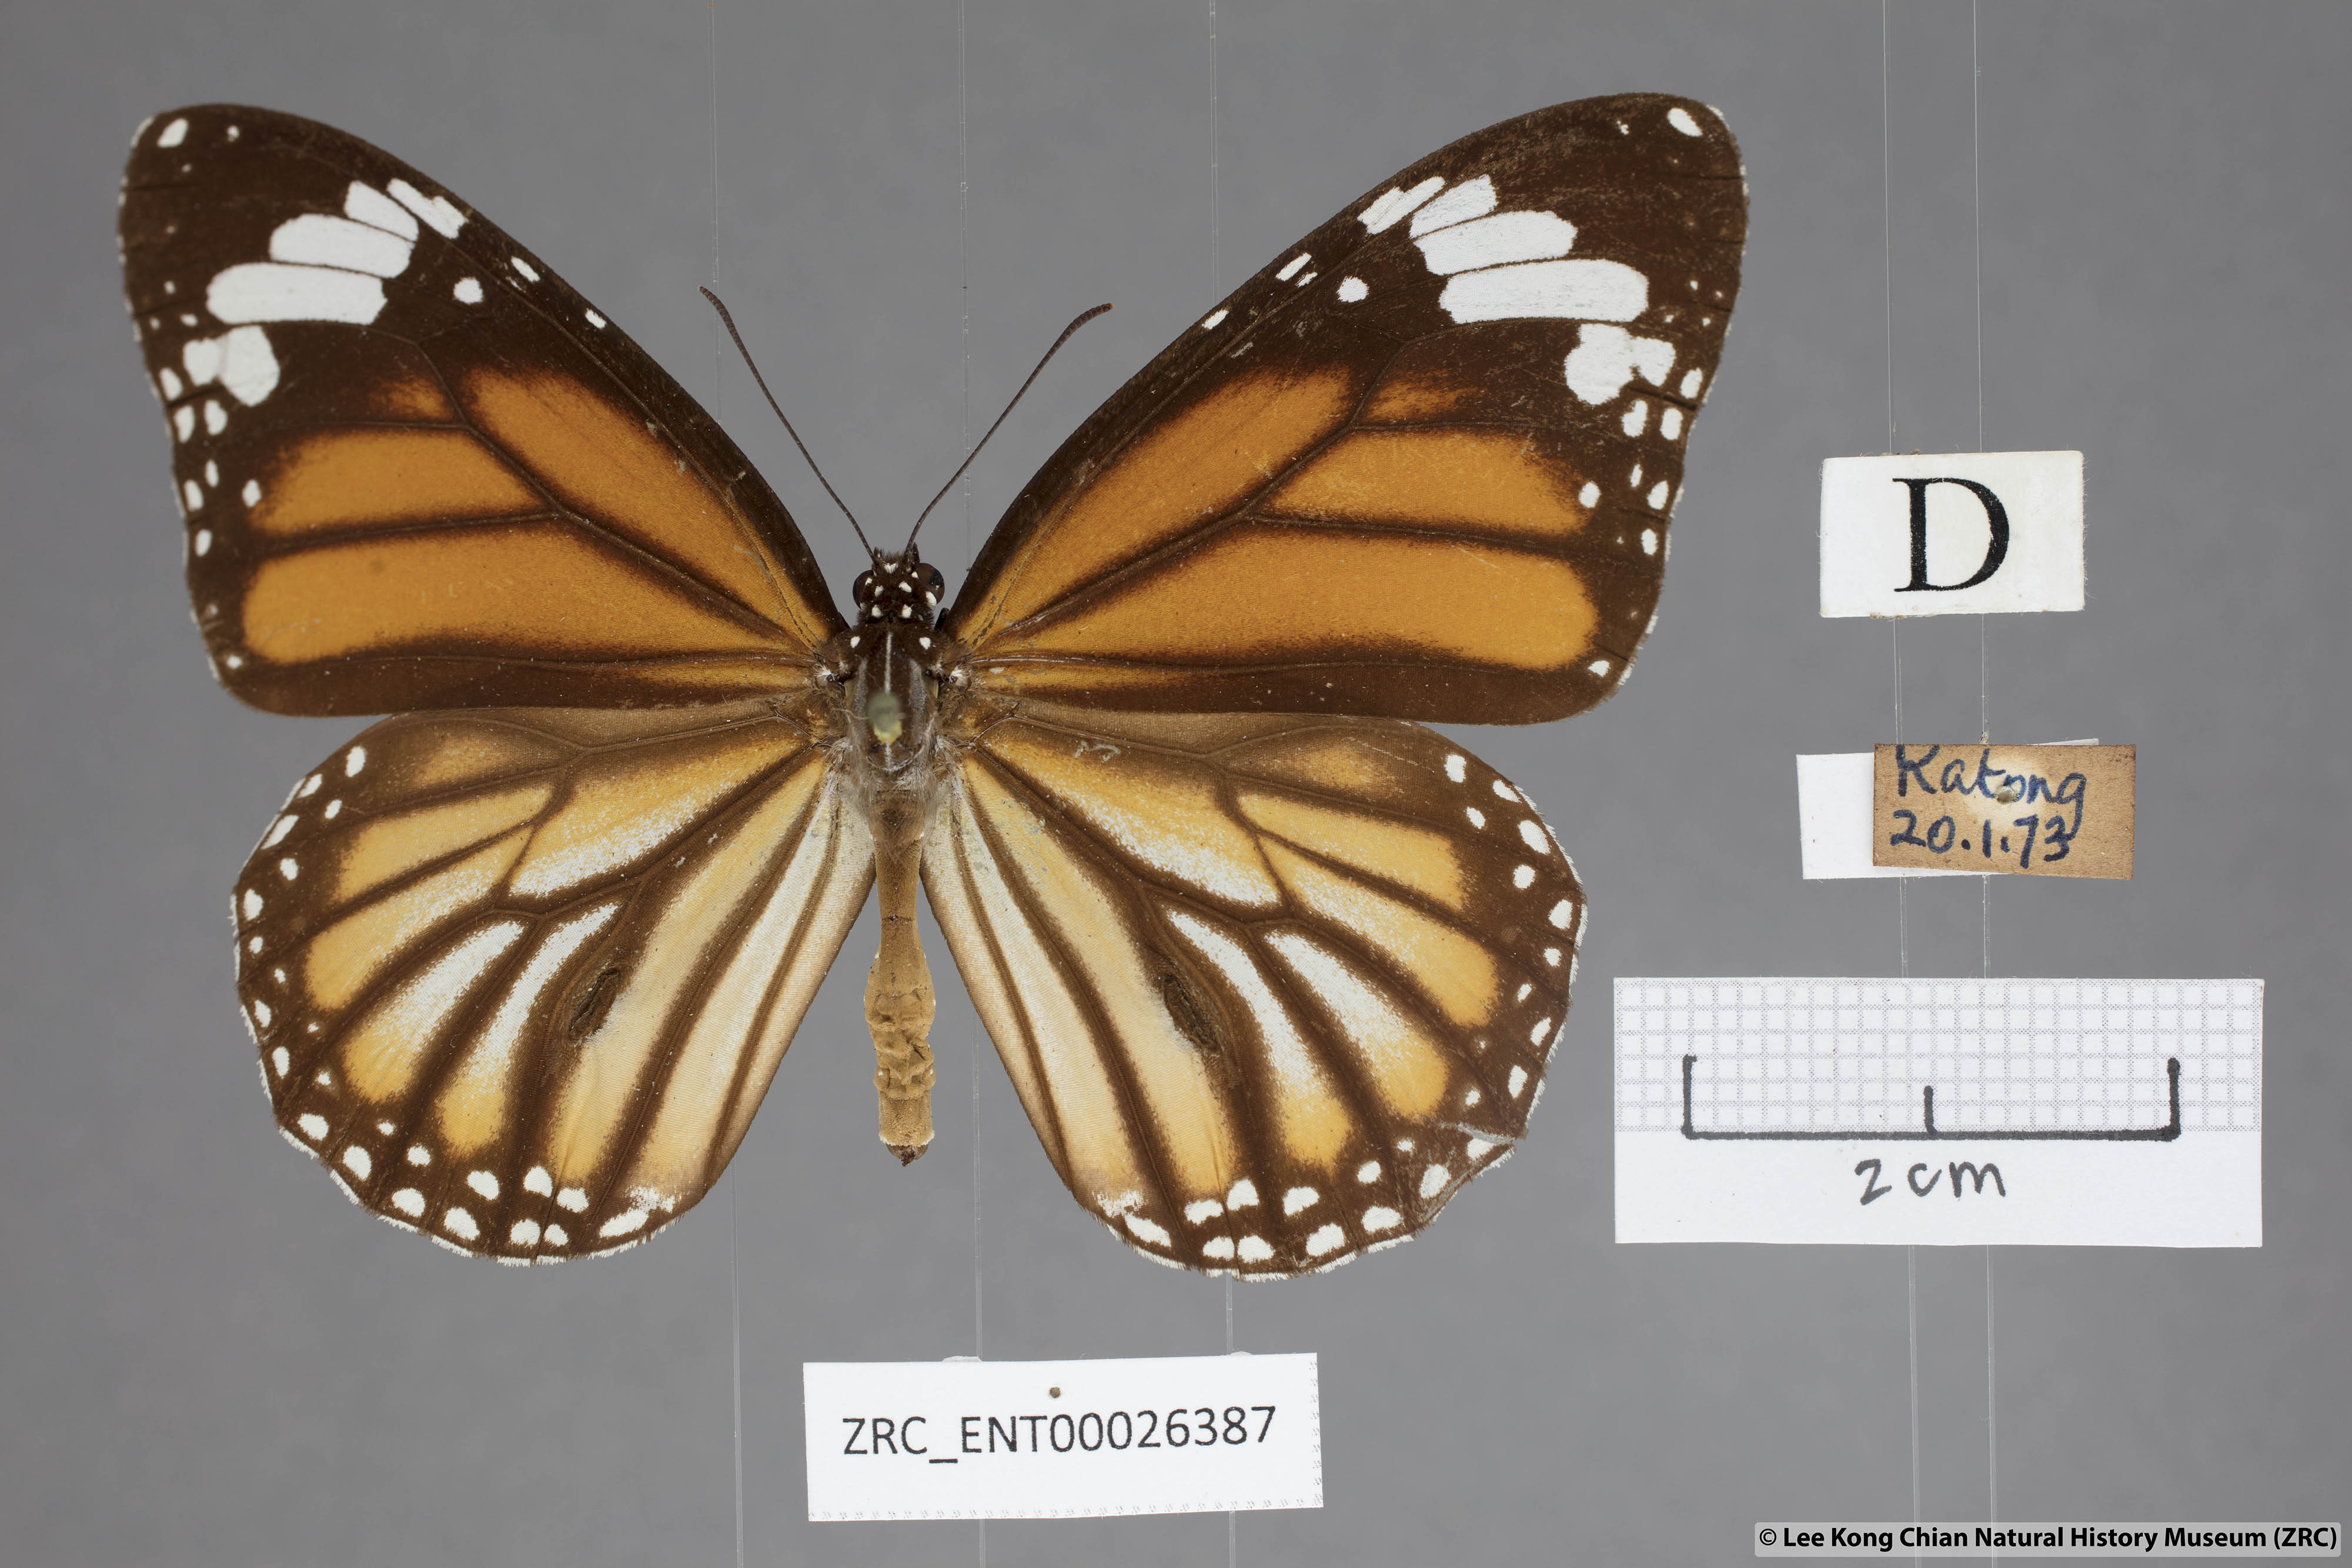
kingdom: Animalia
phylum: Arthropoda
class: Insecta
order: Lepidoptera
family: Nymphalidae
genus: Danaus
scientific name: Danaus genutia
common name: Common tiger butterfly
